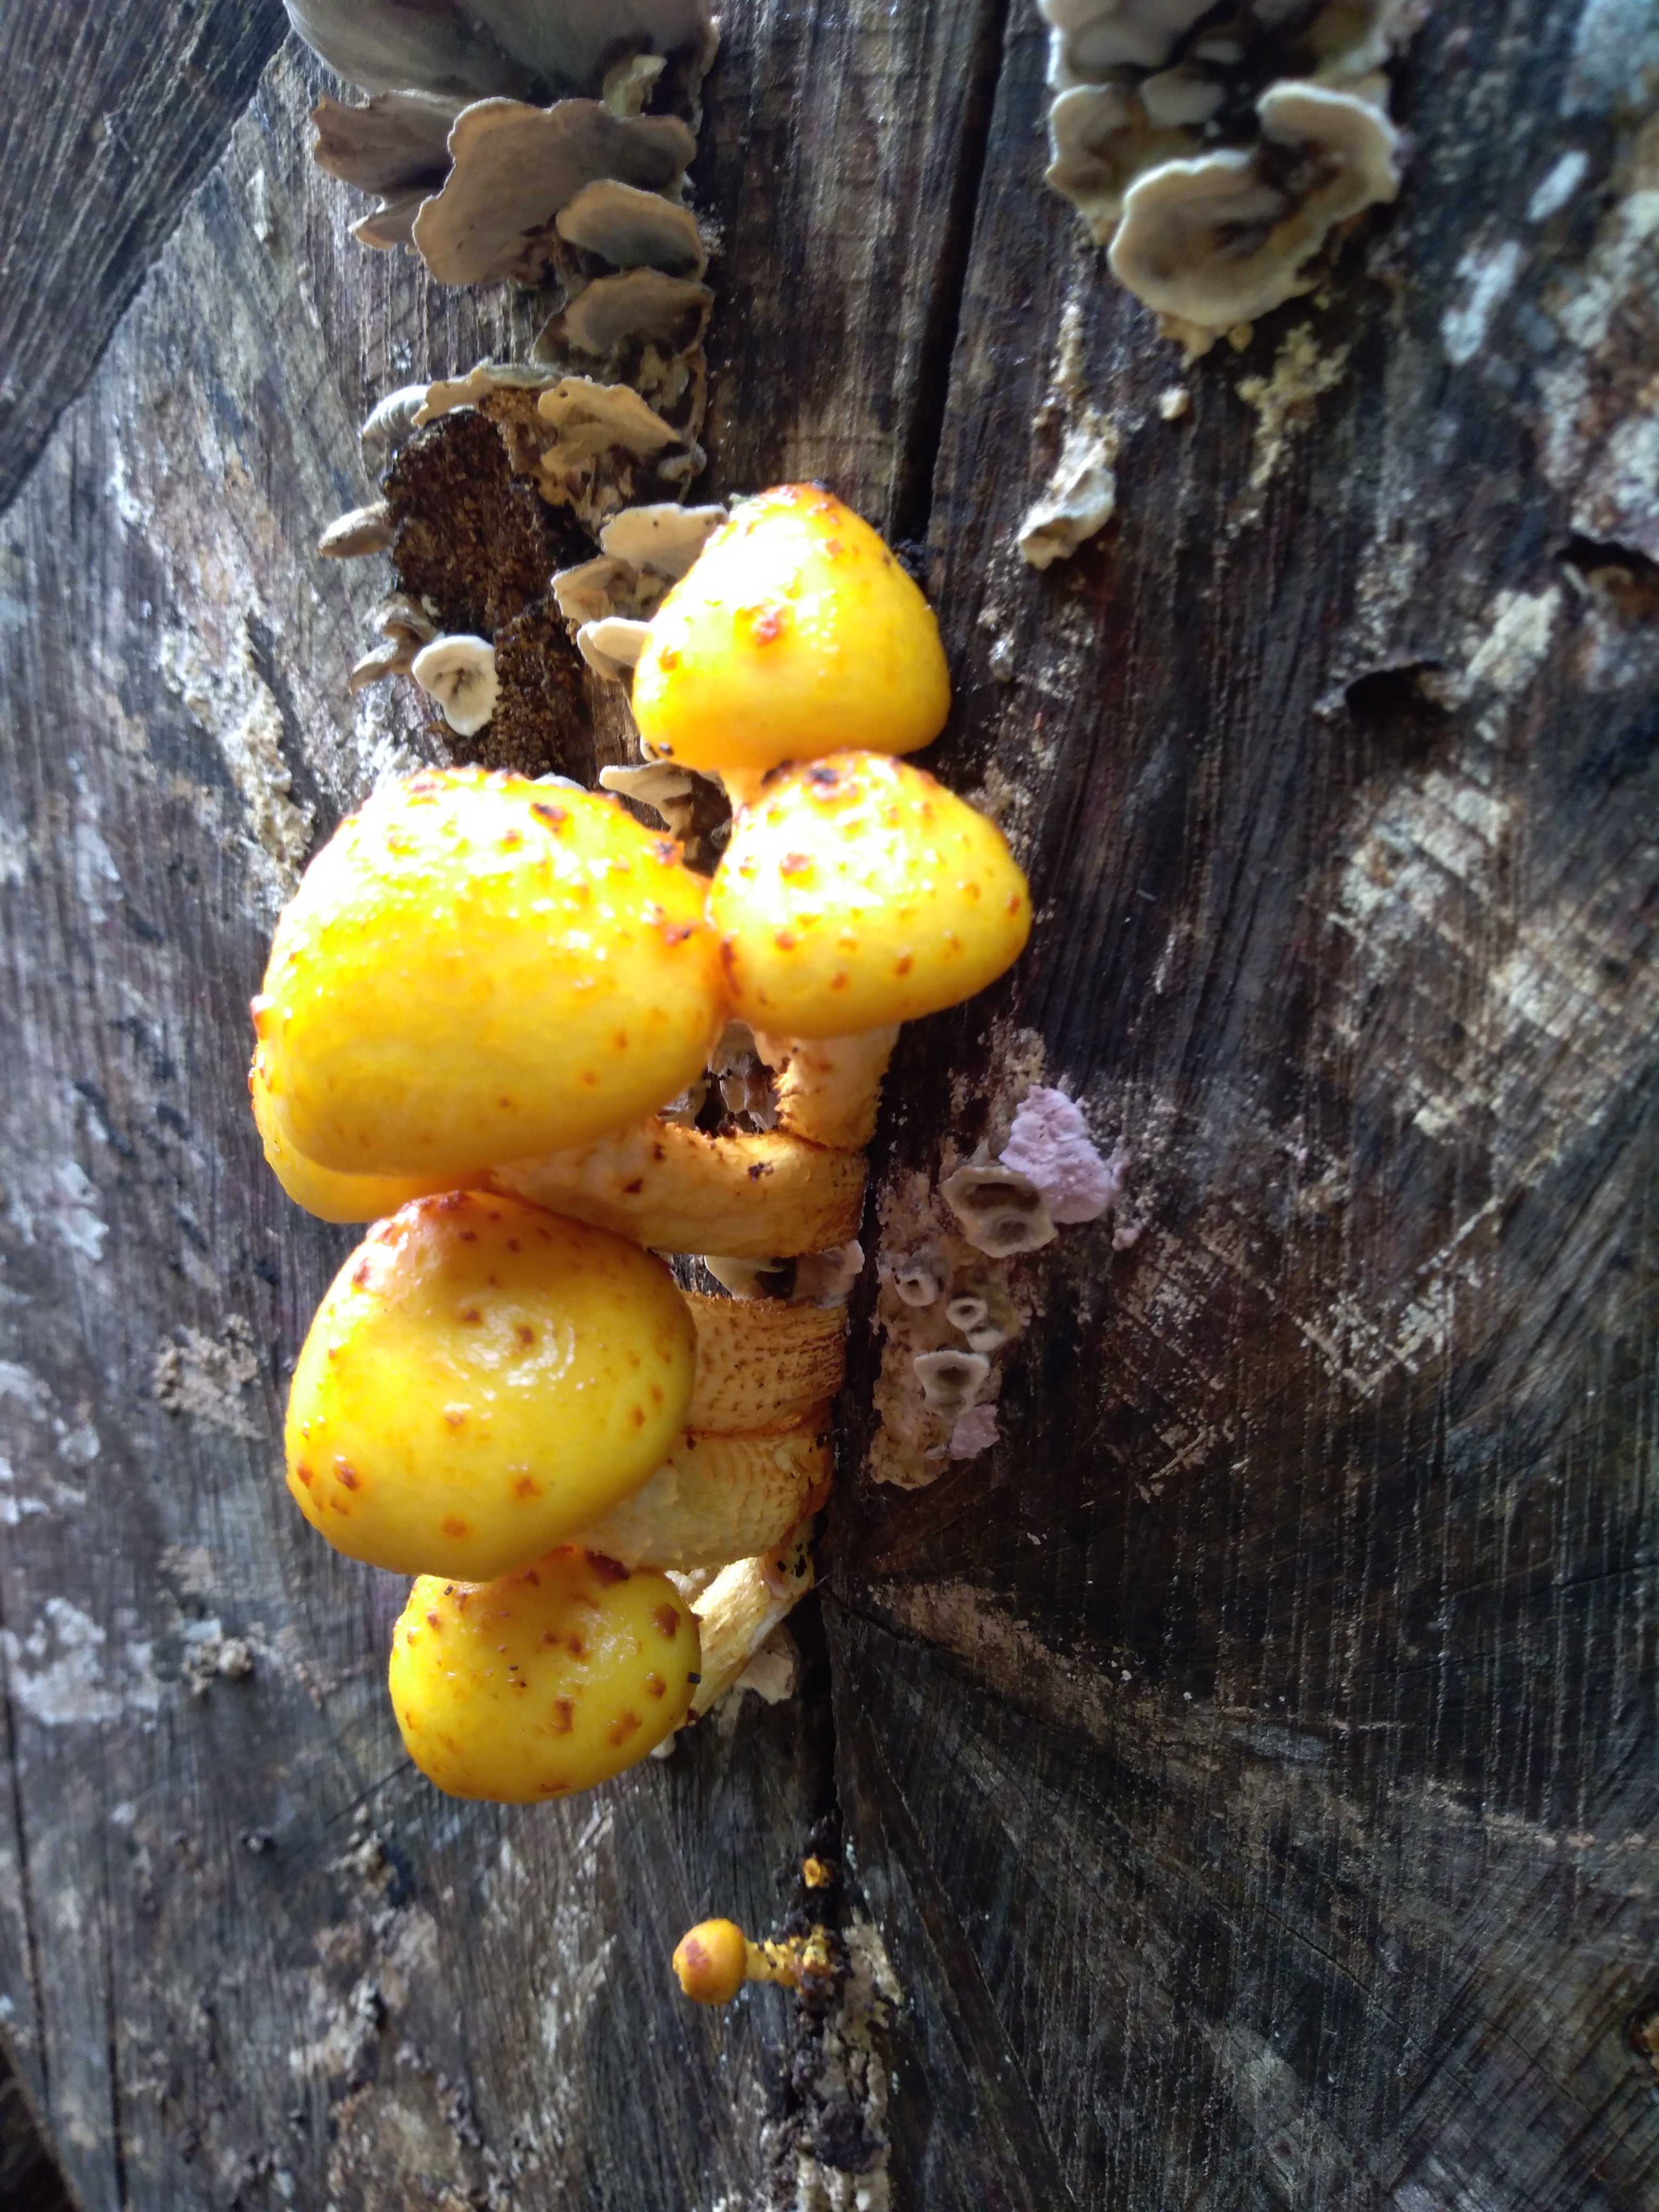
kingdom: Fungi
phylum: Basidiomycota
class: Agaricomycetes
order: Agaricales
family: Strophariaceae
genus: Pholiota
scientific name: Pholiota adiposa
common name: højtsiddende skælhat
